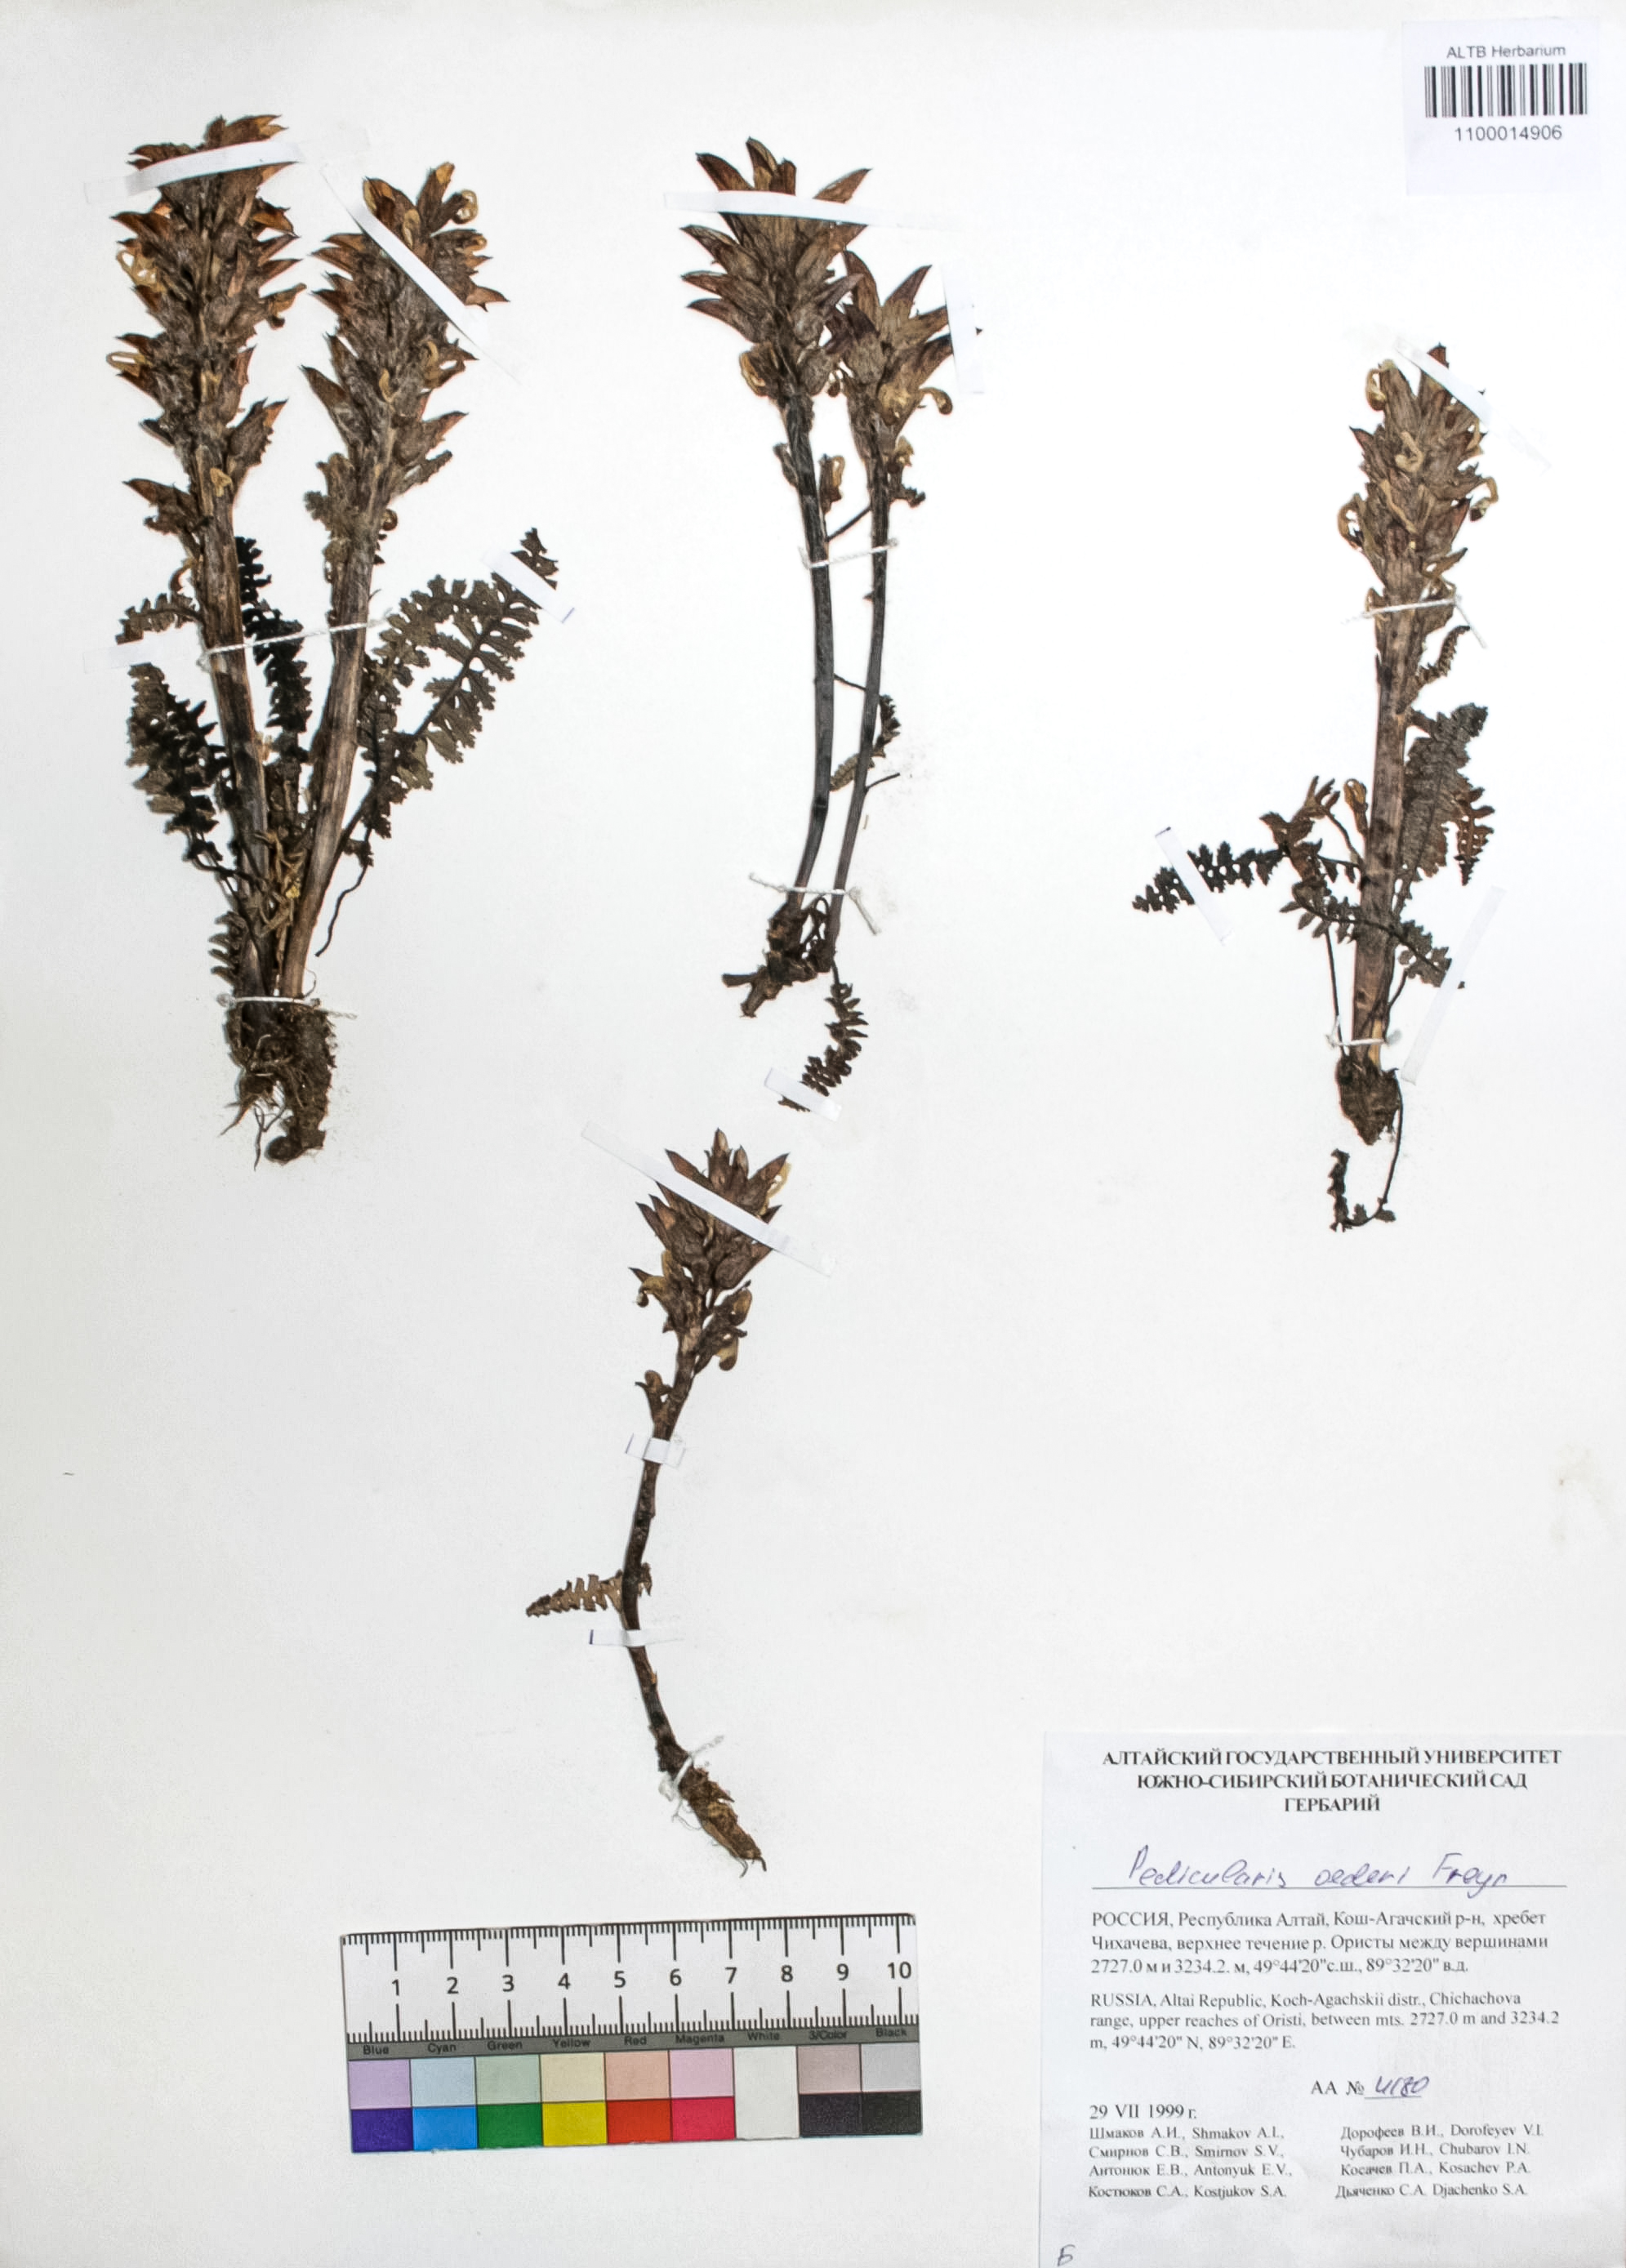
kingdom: Plantae
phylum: Tracheophyta
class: Magnoliopsida
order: Lamiales
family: Orobanchaceae
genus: Pedicularis
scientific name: Pedicularis karoi
